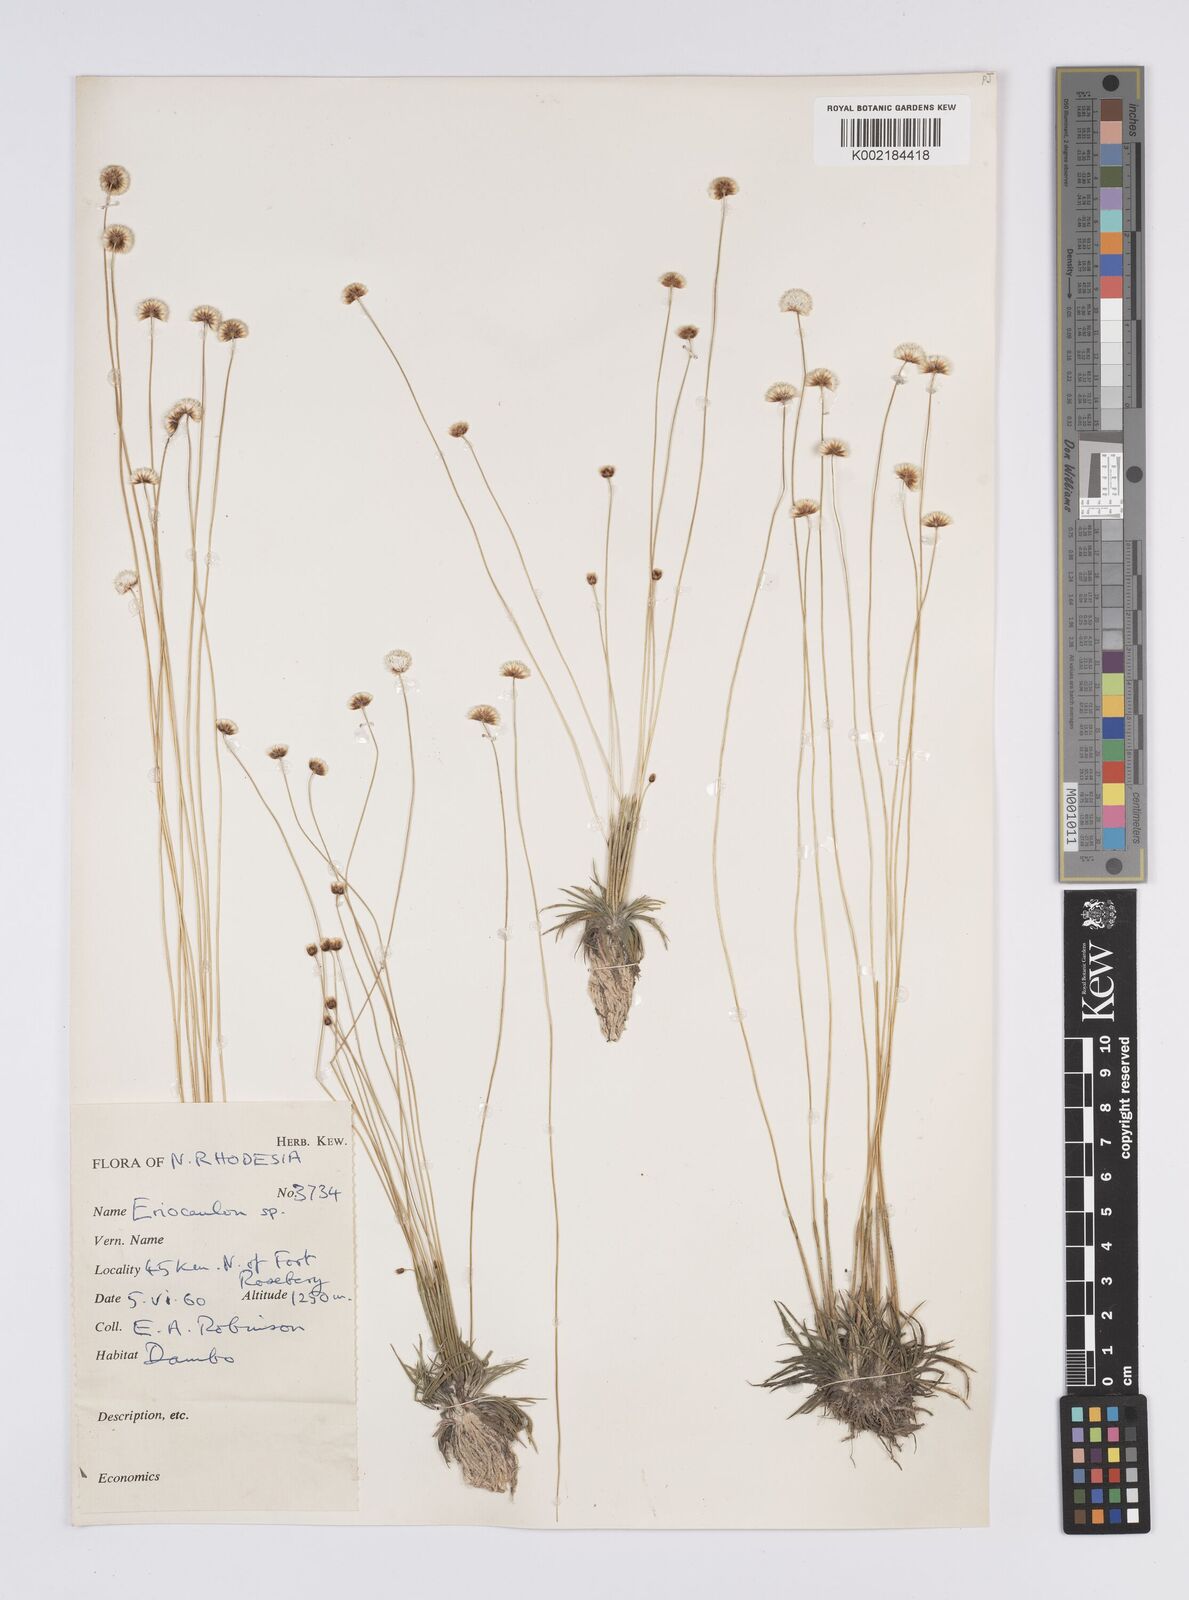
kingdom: Plantae
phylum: Tracheophyta
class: Liliopsida
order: Poales
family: Eriocaulaceae
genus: Eriocaulon
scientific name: Eriocaulon
